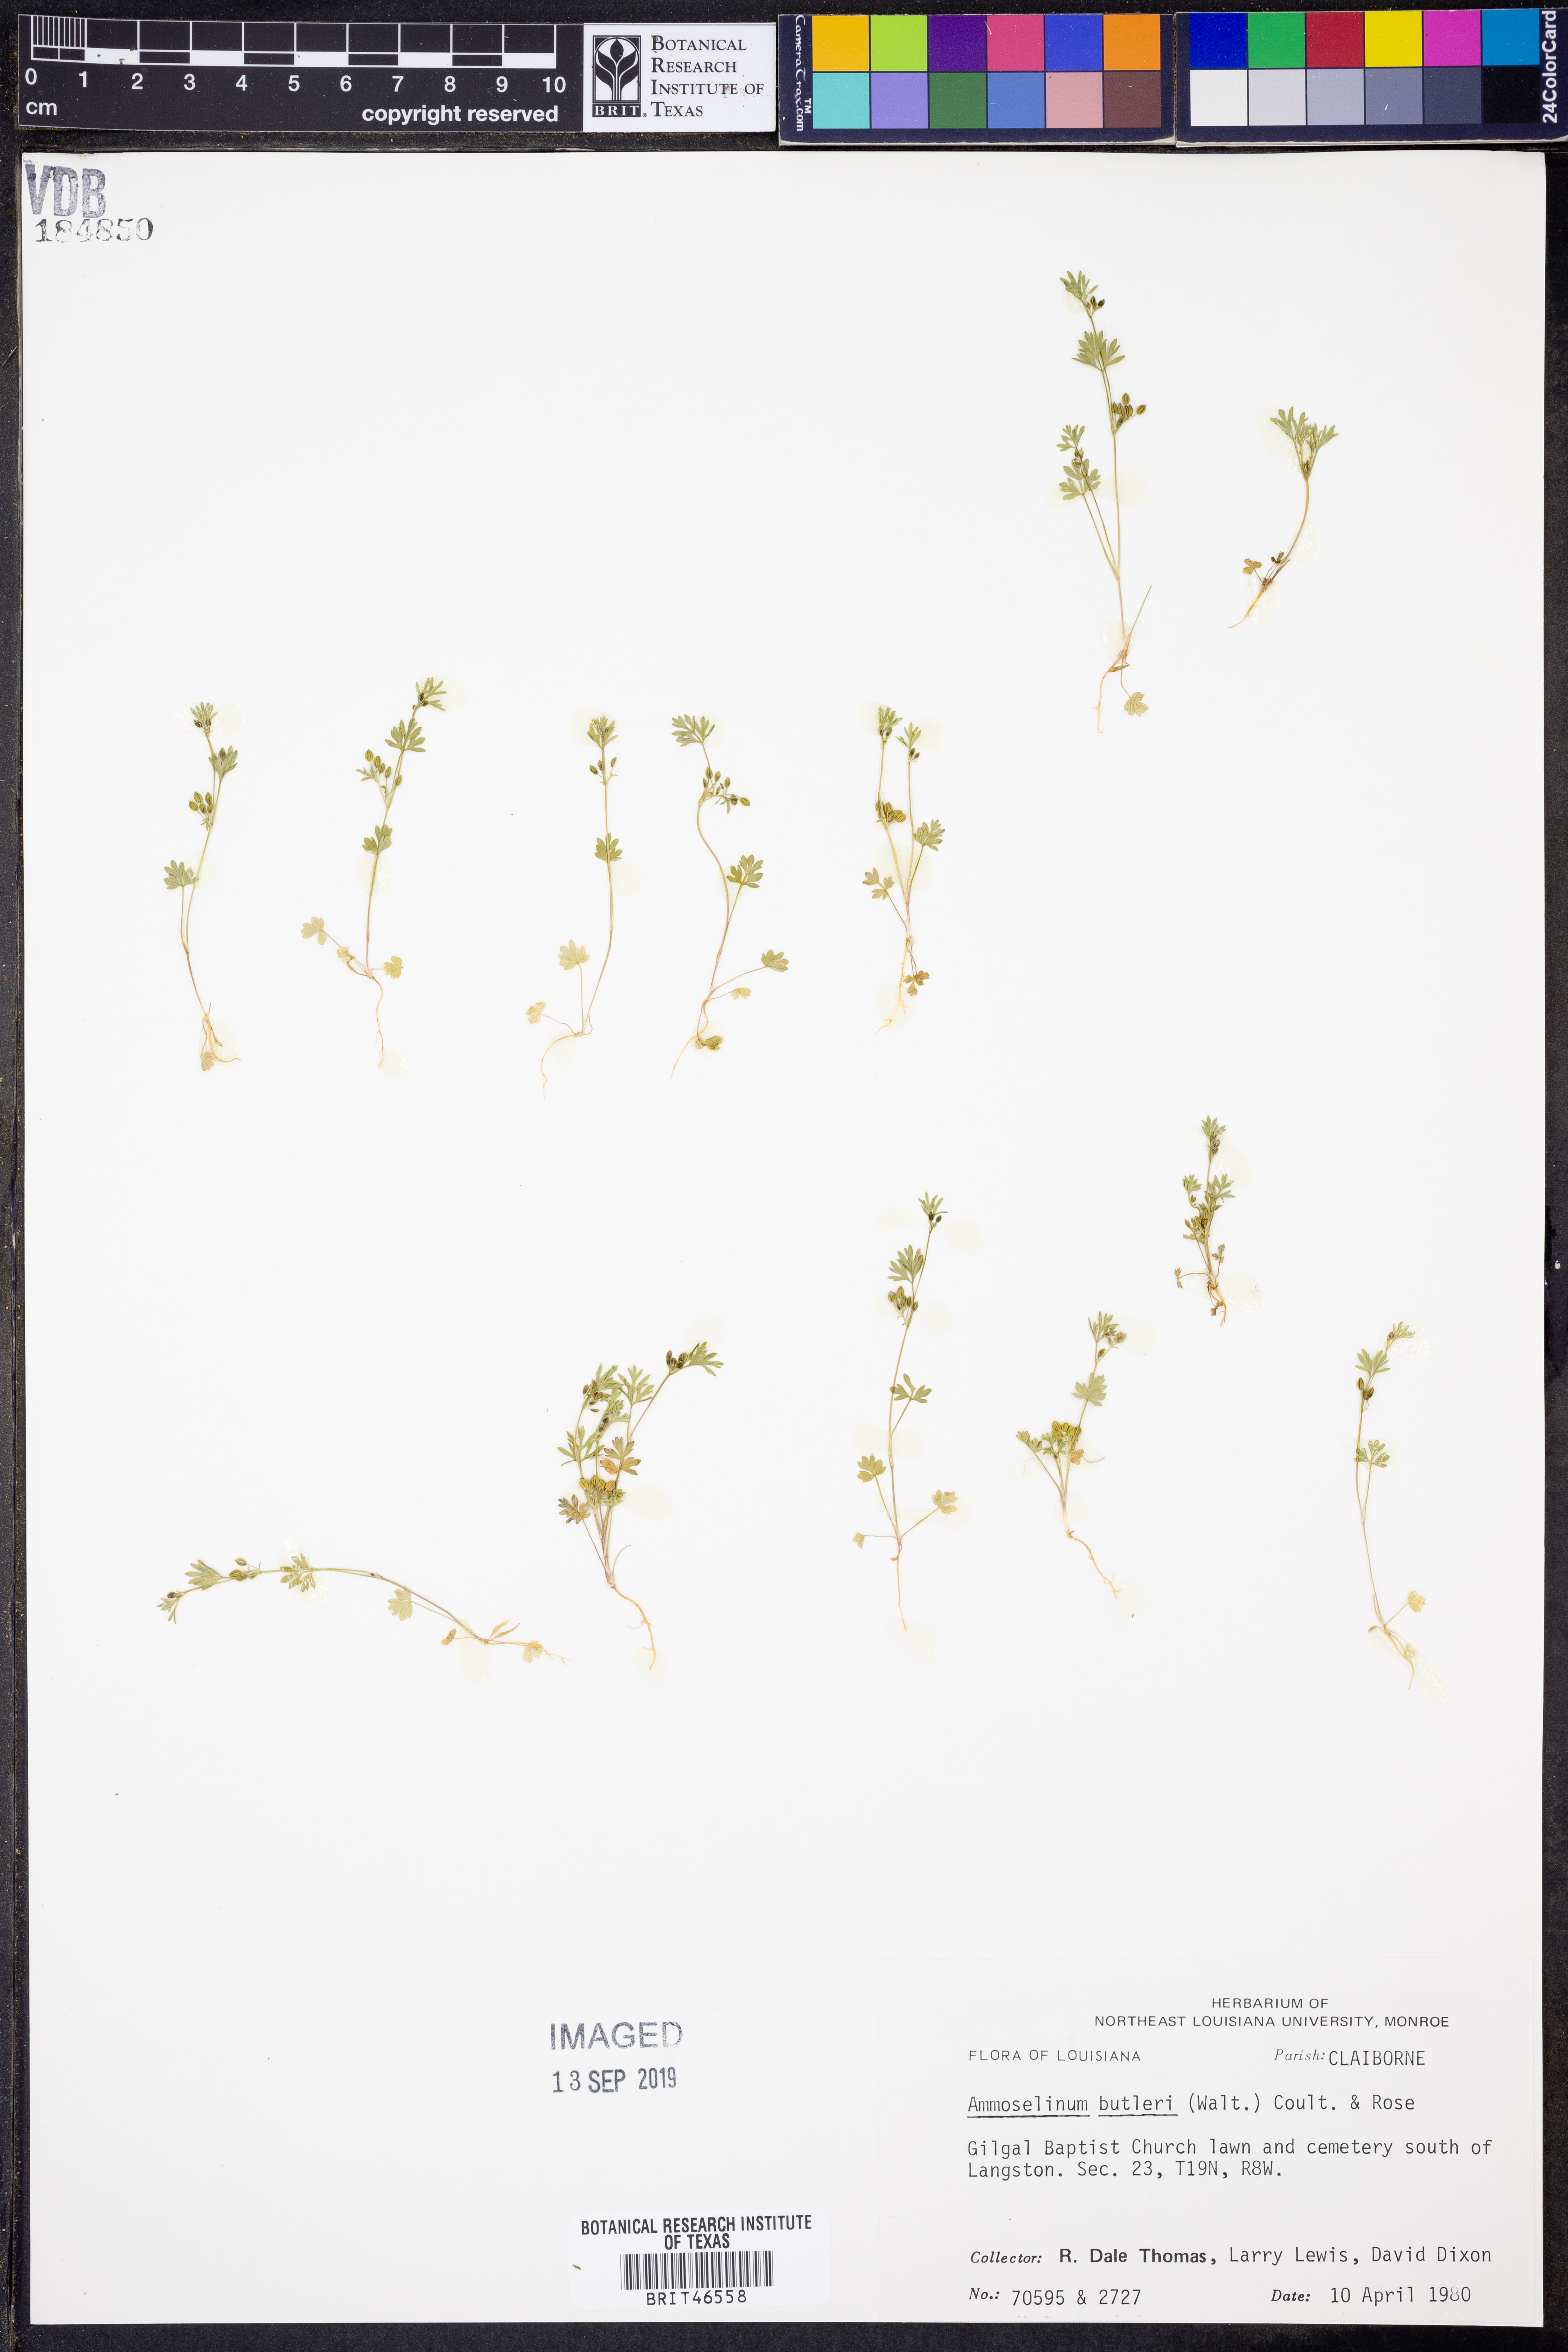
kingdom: Plantae
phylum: Tracheophyta
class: Magnoliopsida
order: Apiales
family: Apiaceae
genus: Ammoselinum
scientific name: Ammoselinum butleri
